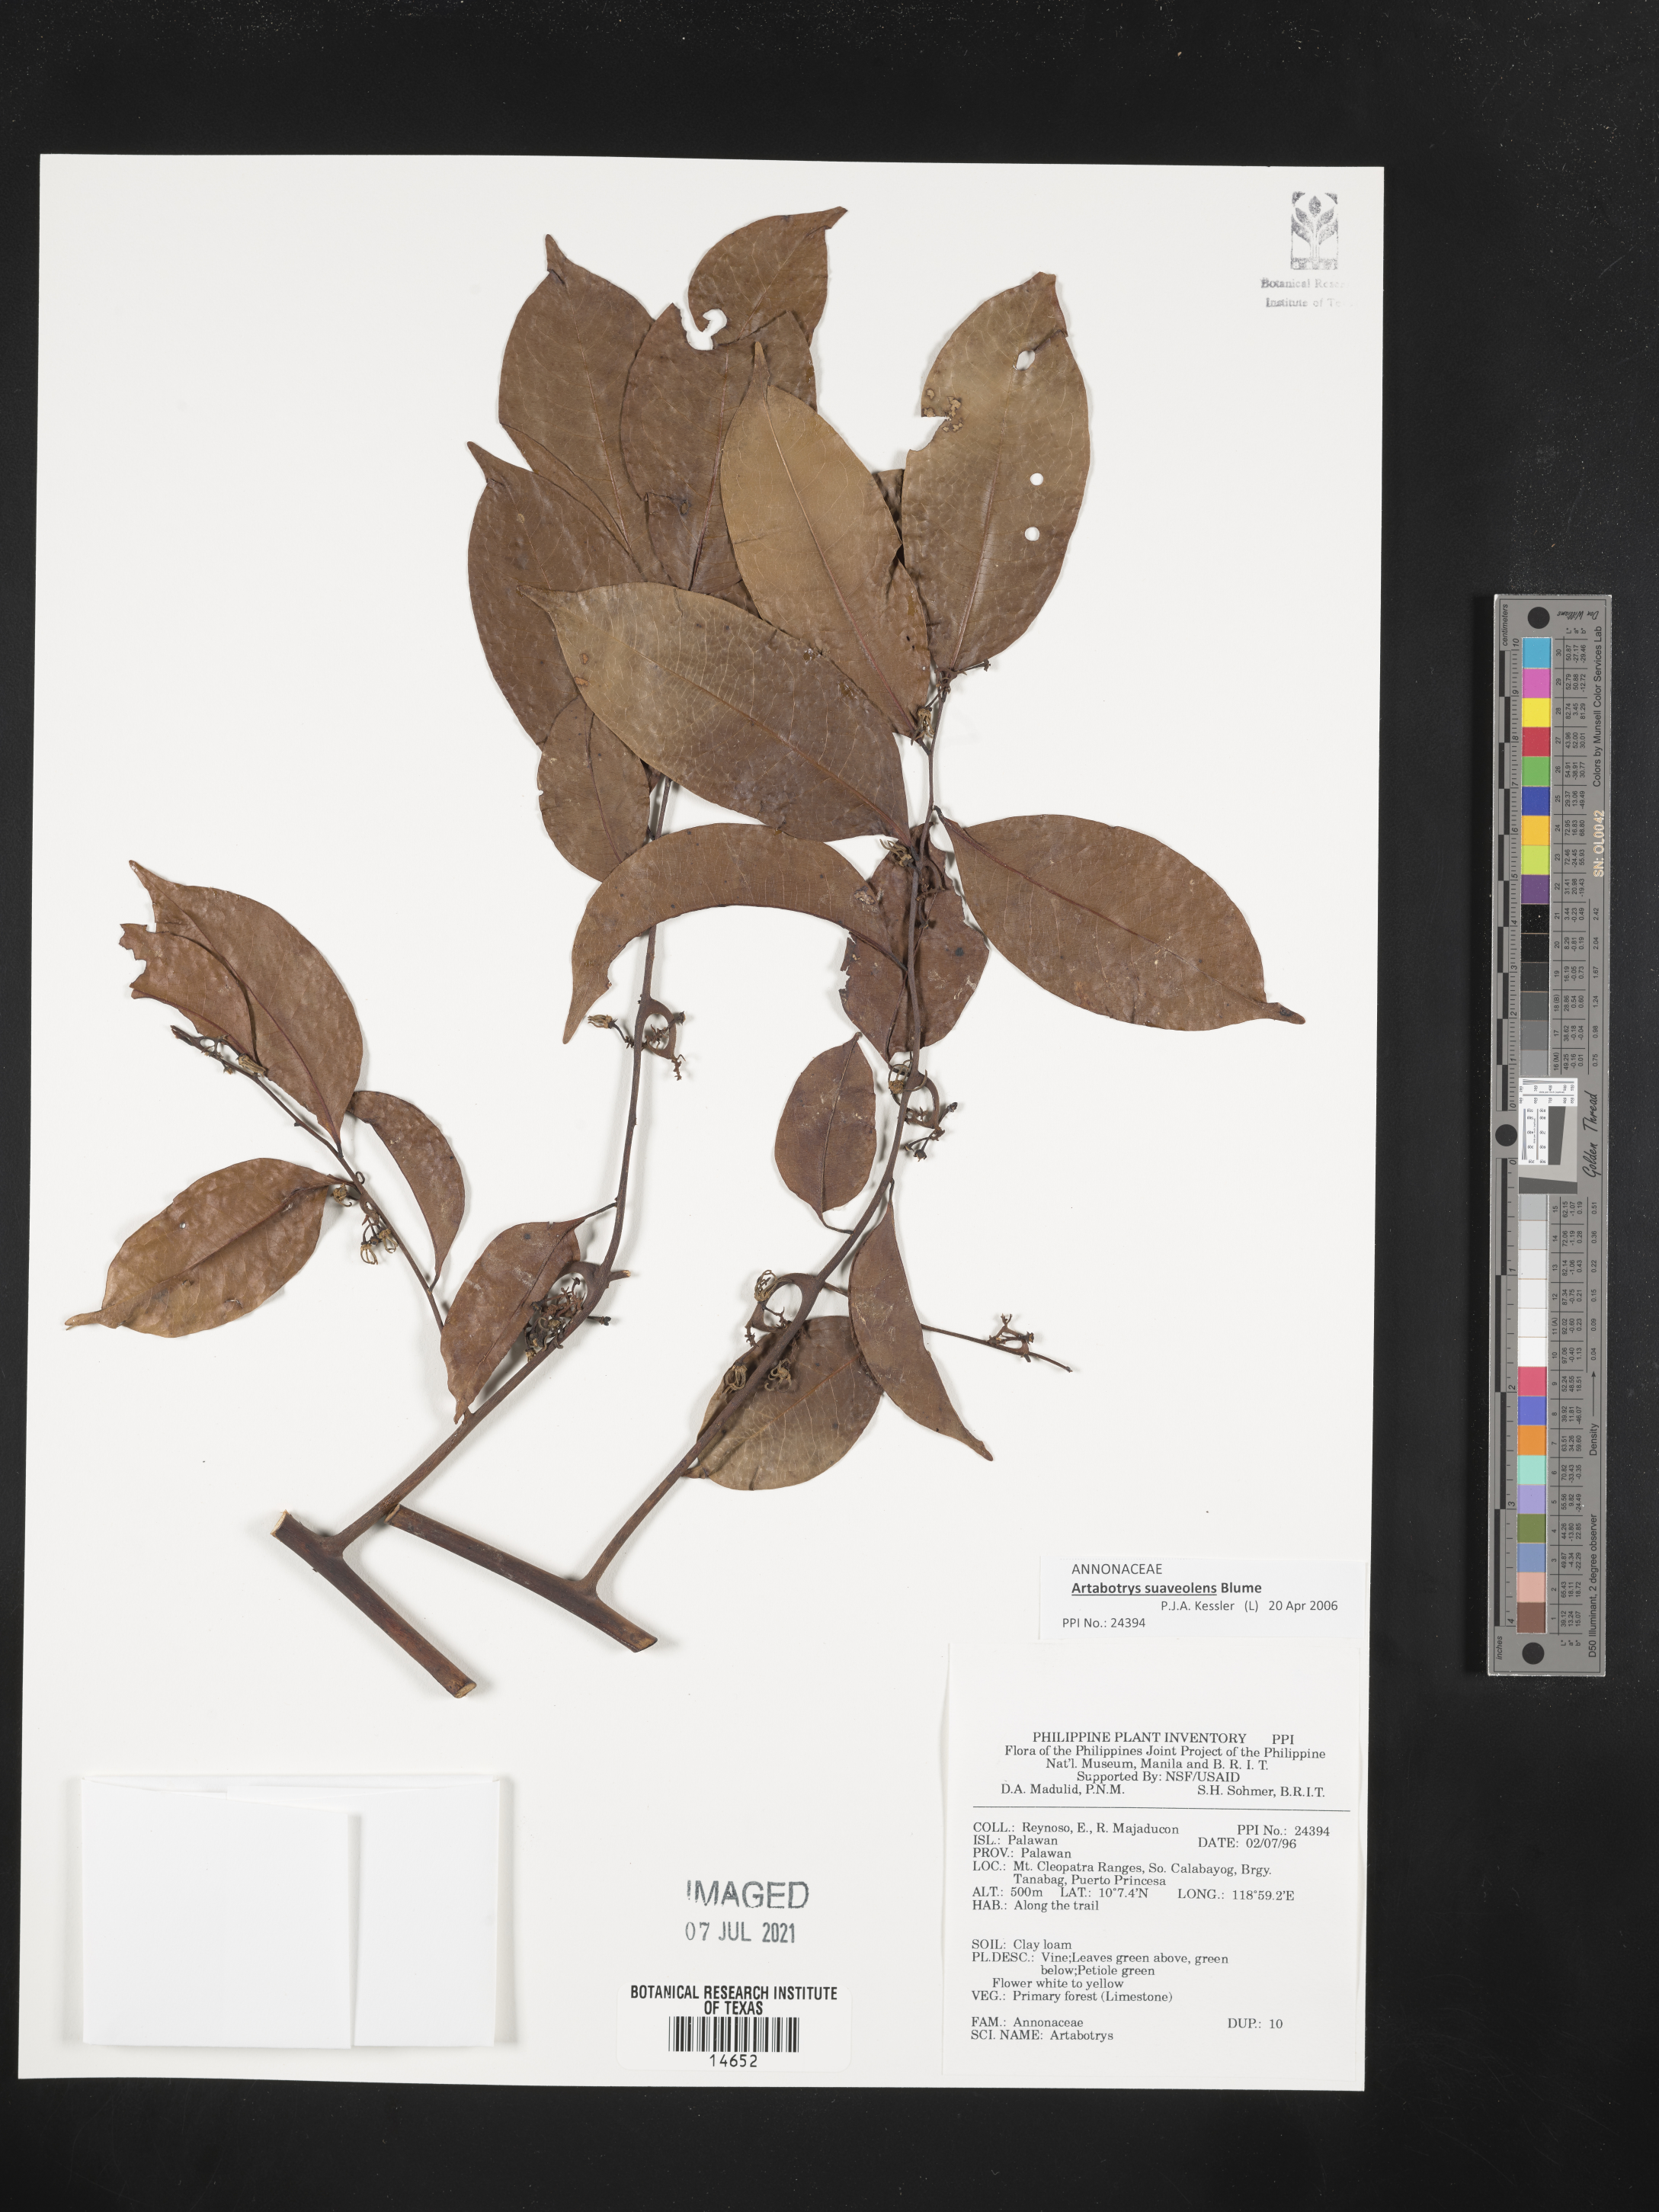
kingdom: Plantae
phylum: Tracheophyta
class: Magnoliopsida
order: Magnoliales
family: Annonaceae
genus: Artabotrys
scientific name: Artabotrys
